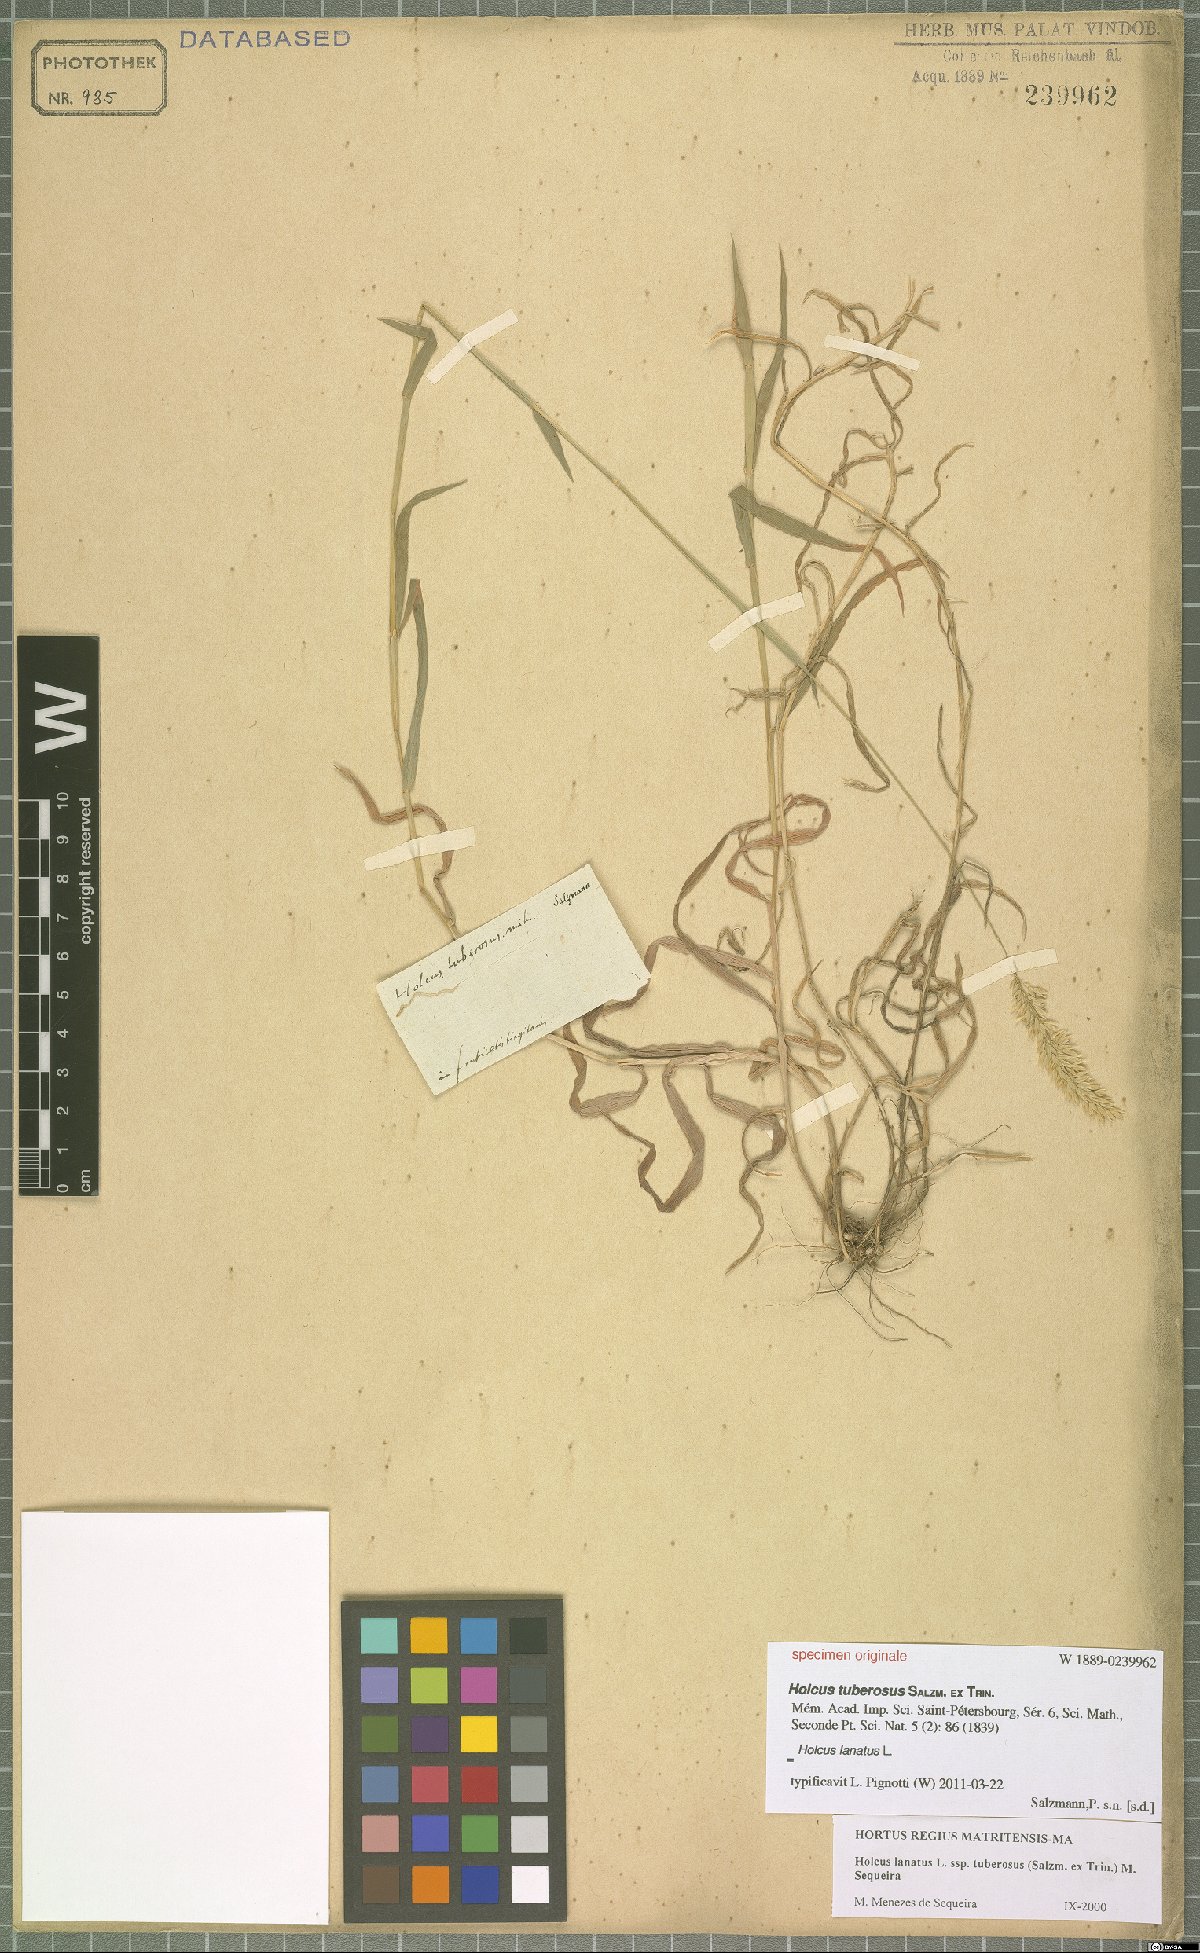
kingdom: Plantae
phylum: Tracheophyta
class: Liliopsida
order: Poales
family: Poaceae
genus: Holcus
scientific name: Holcus lanatus
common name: Yorkshire-fog
